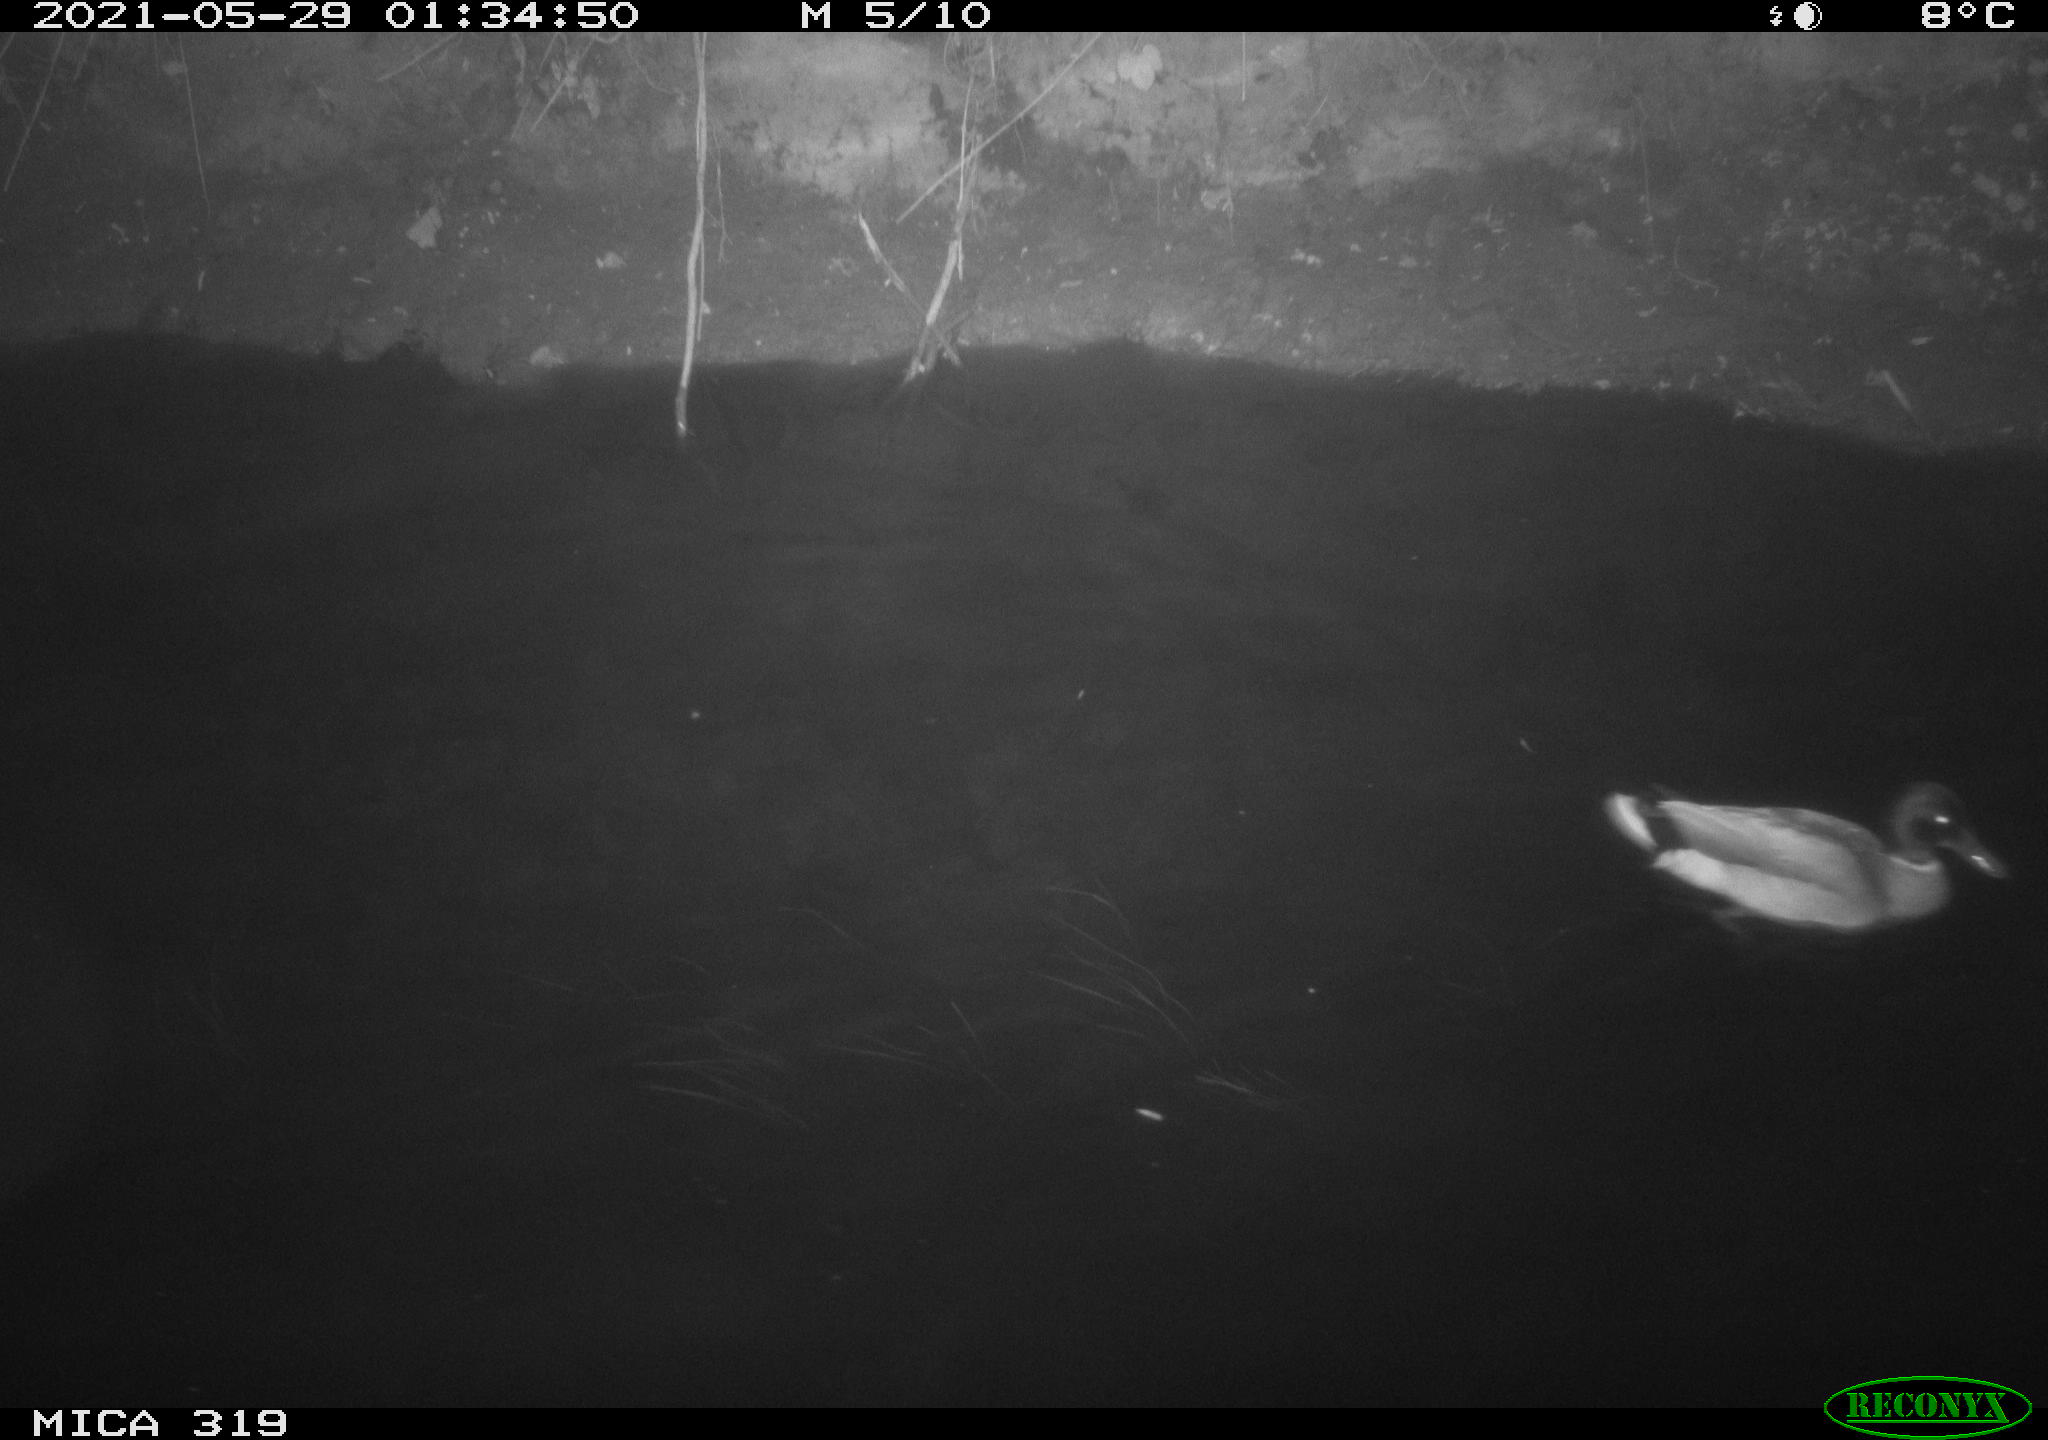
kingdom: Animalia
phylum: Chordata
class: Aves
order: Anseriformes
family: Anatidae
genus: Anas
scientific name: Anas platyrhynchos
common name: Mallard
